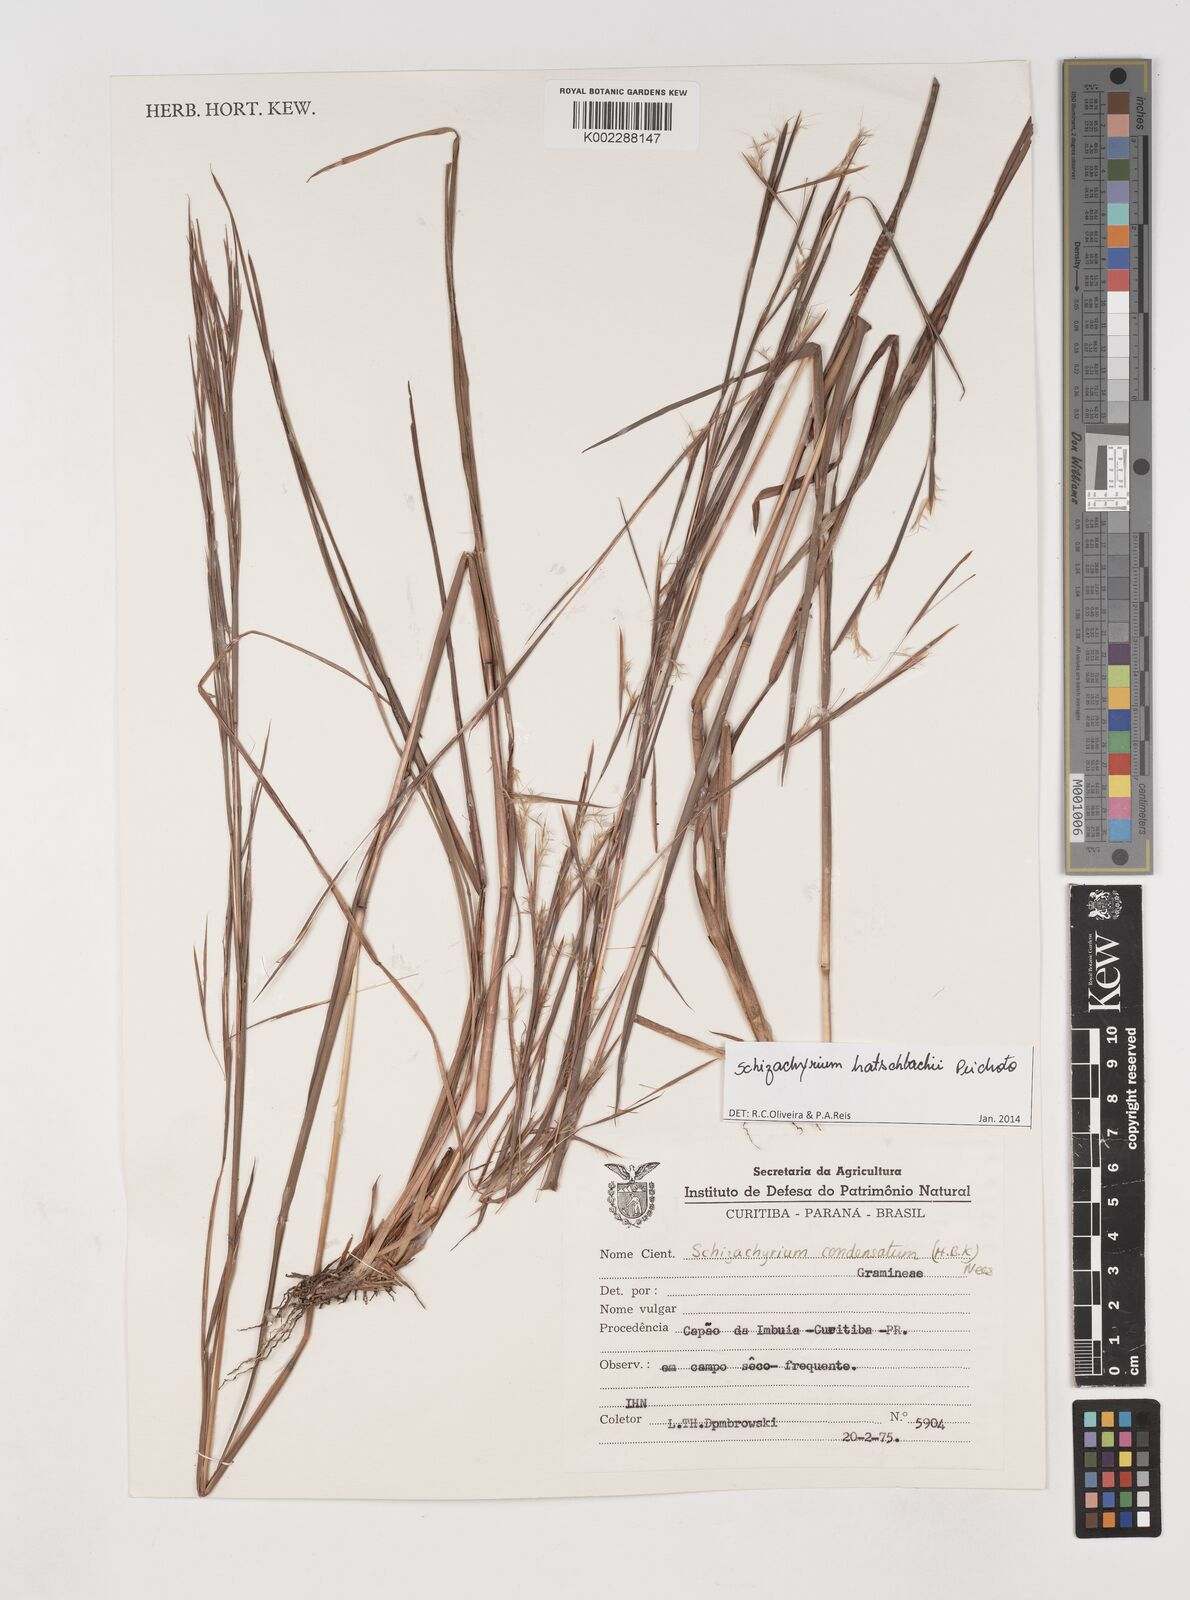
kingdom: Plantae
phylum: Tracheophyta
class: Liliopsida
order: Poales
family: Poaceae
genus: Schizachyrium
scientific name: Schizachyrium hatschbachii
